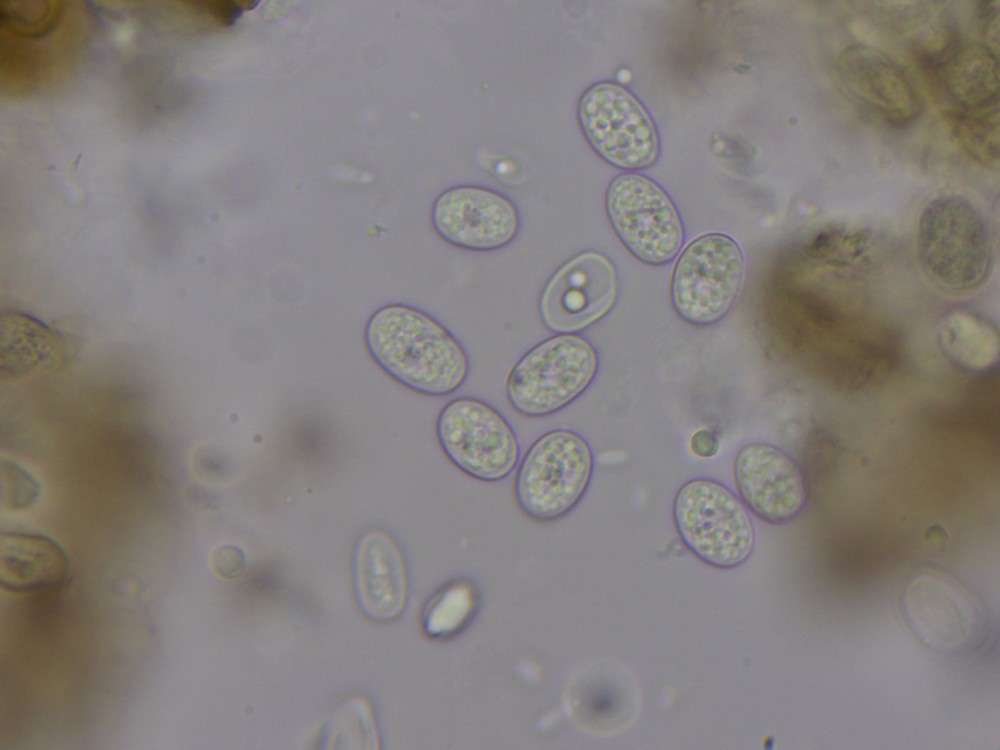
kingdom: Fungi
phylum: Ascomycota
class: Dothideomycetes
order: Venturiales
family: Venturiaceae
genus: Rhizosphaera
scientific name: Rhizosphaera oudemansii
